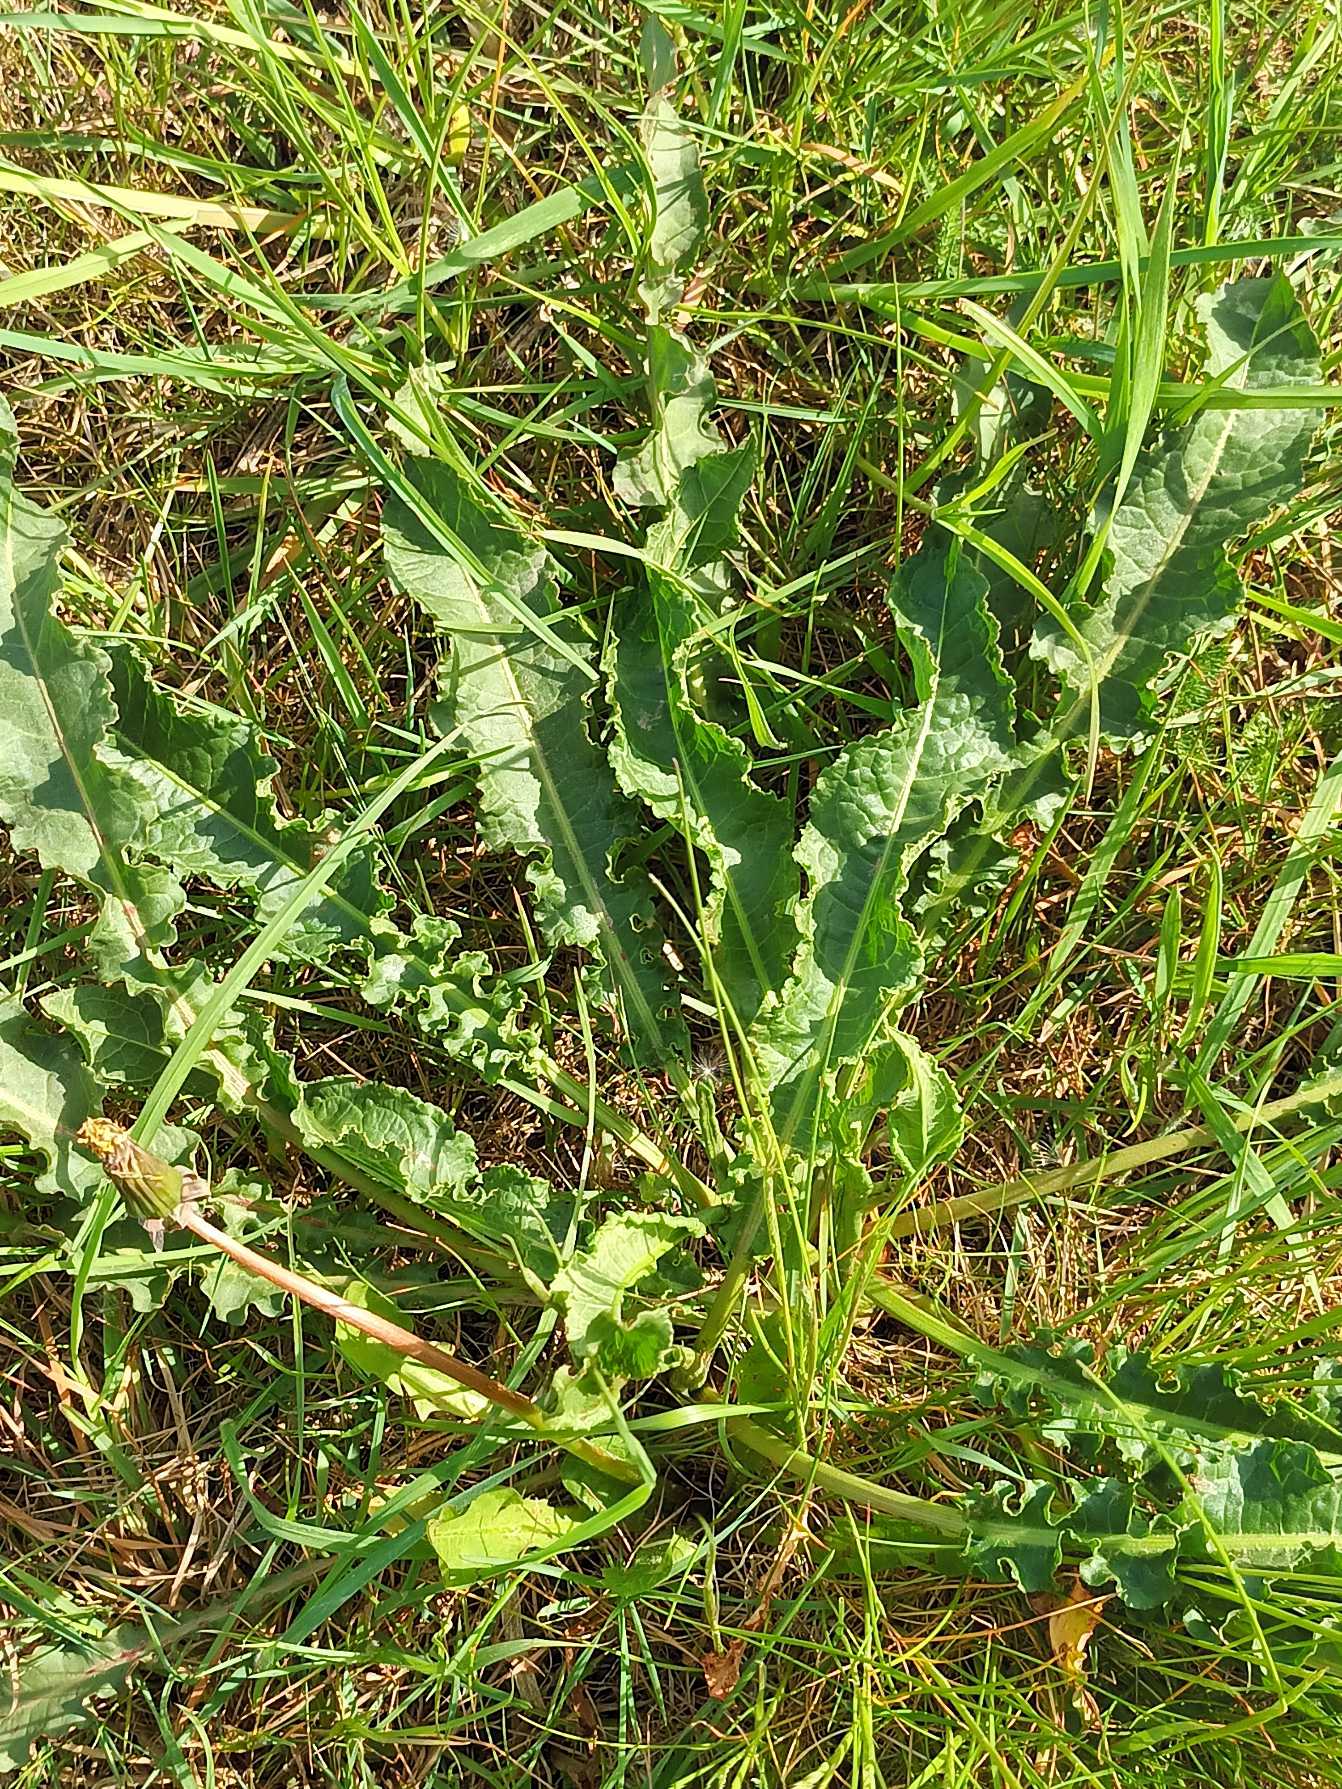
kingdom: Plantae
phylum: Tracheophyta
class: Magnoliopsida
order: Caryophyllales
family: Polygonaceae
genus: Rumex
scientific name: Rumex crispus
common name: Kruset skræppe
